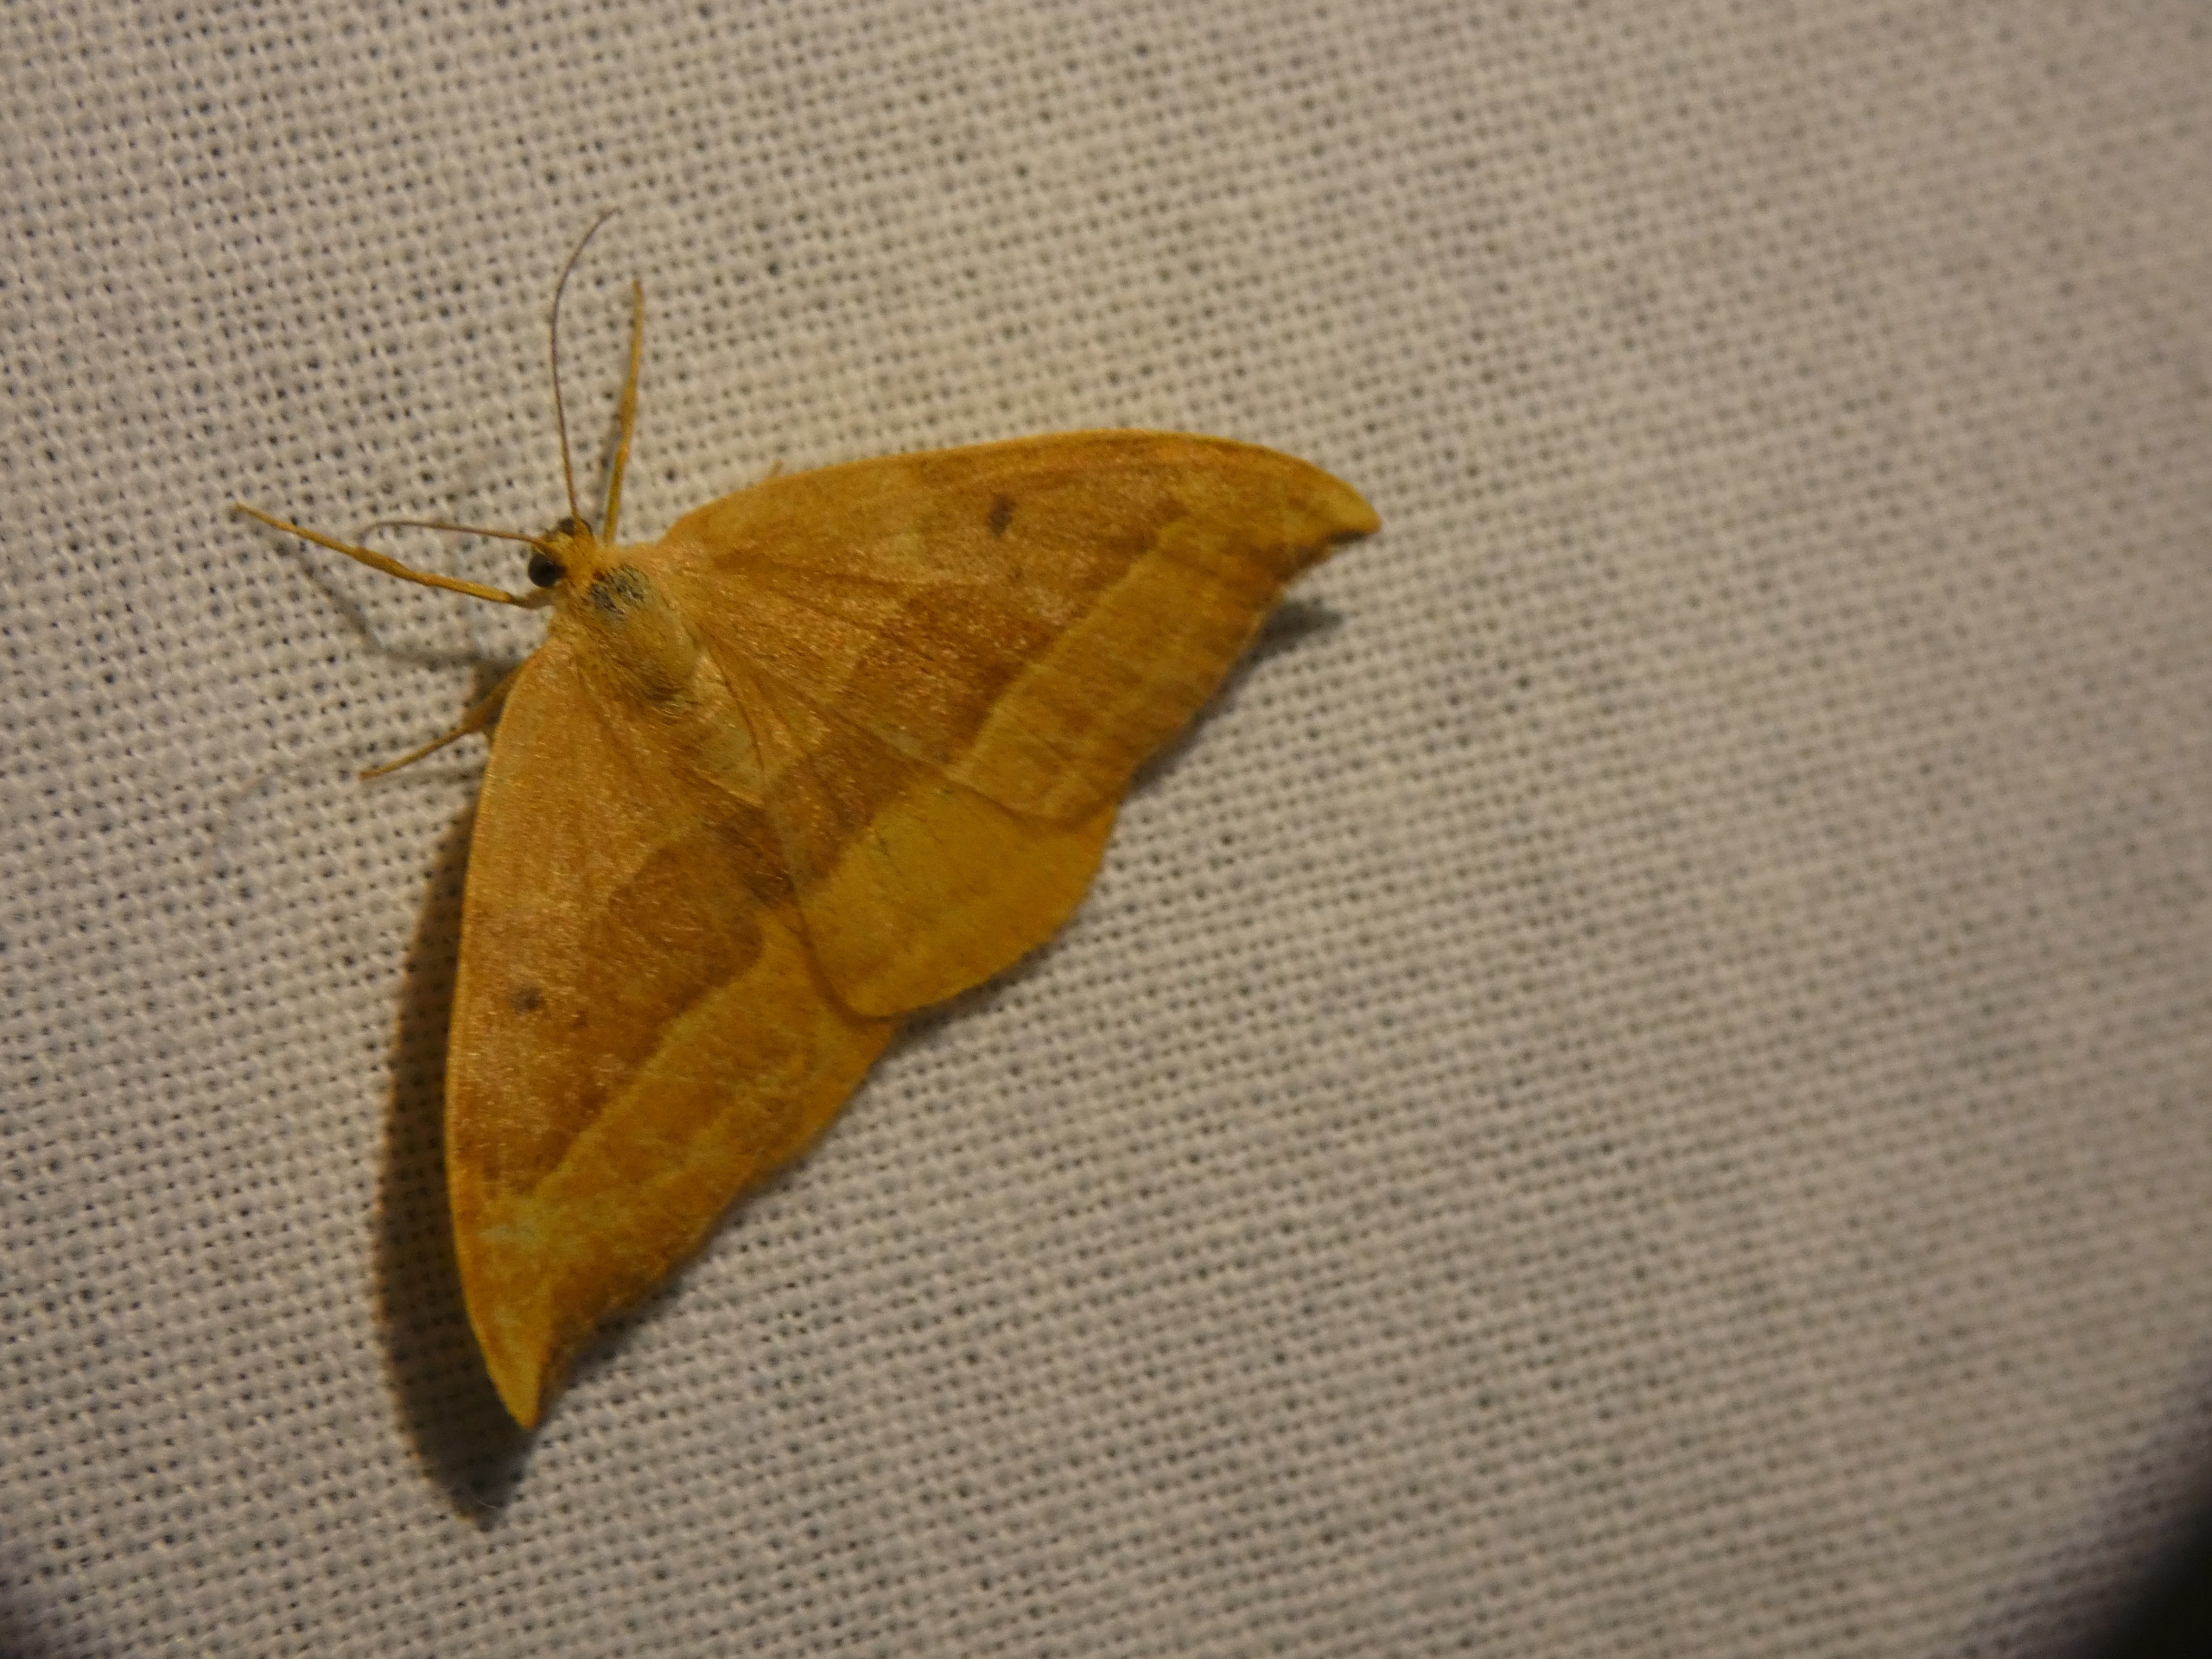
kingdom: Animalia
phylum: Arthropoda
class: Insecta
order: Lepidoptera
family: Drepanidae
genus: Watsonalla
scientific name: Watsonalla cultraria
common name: Bøgeseglvinge
